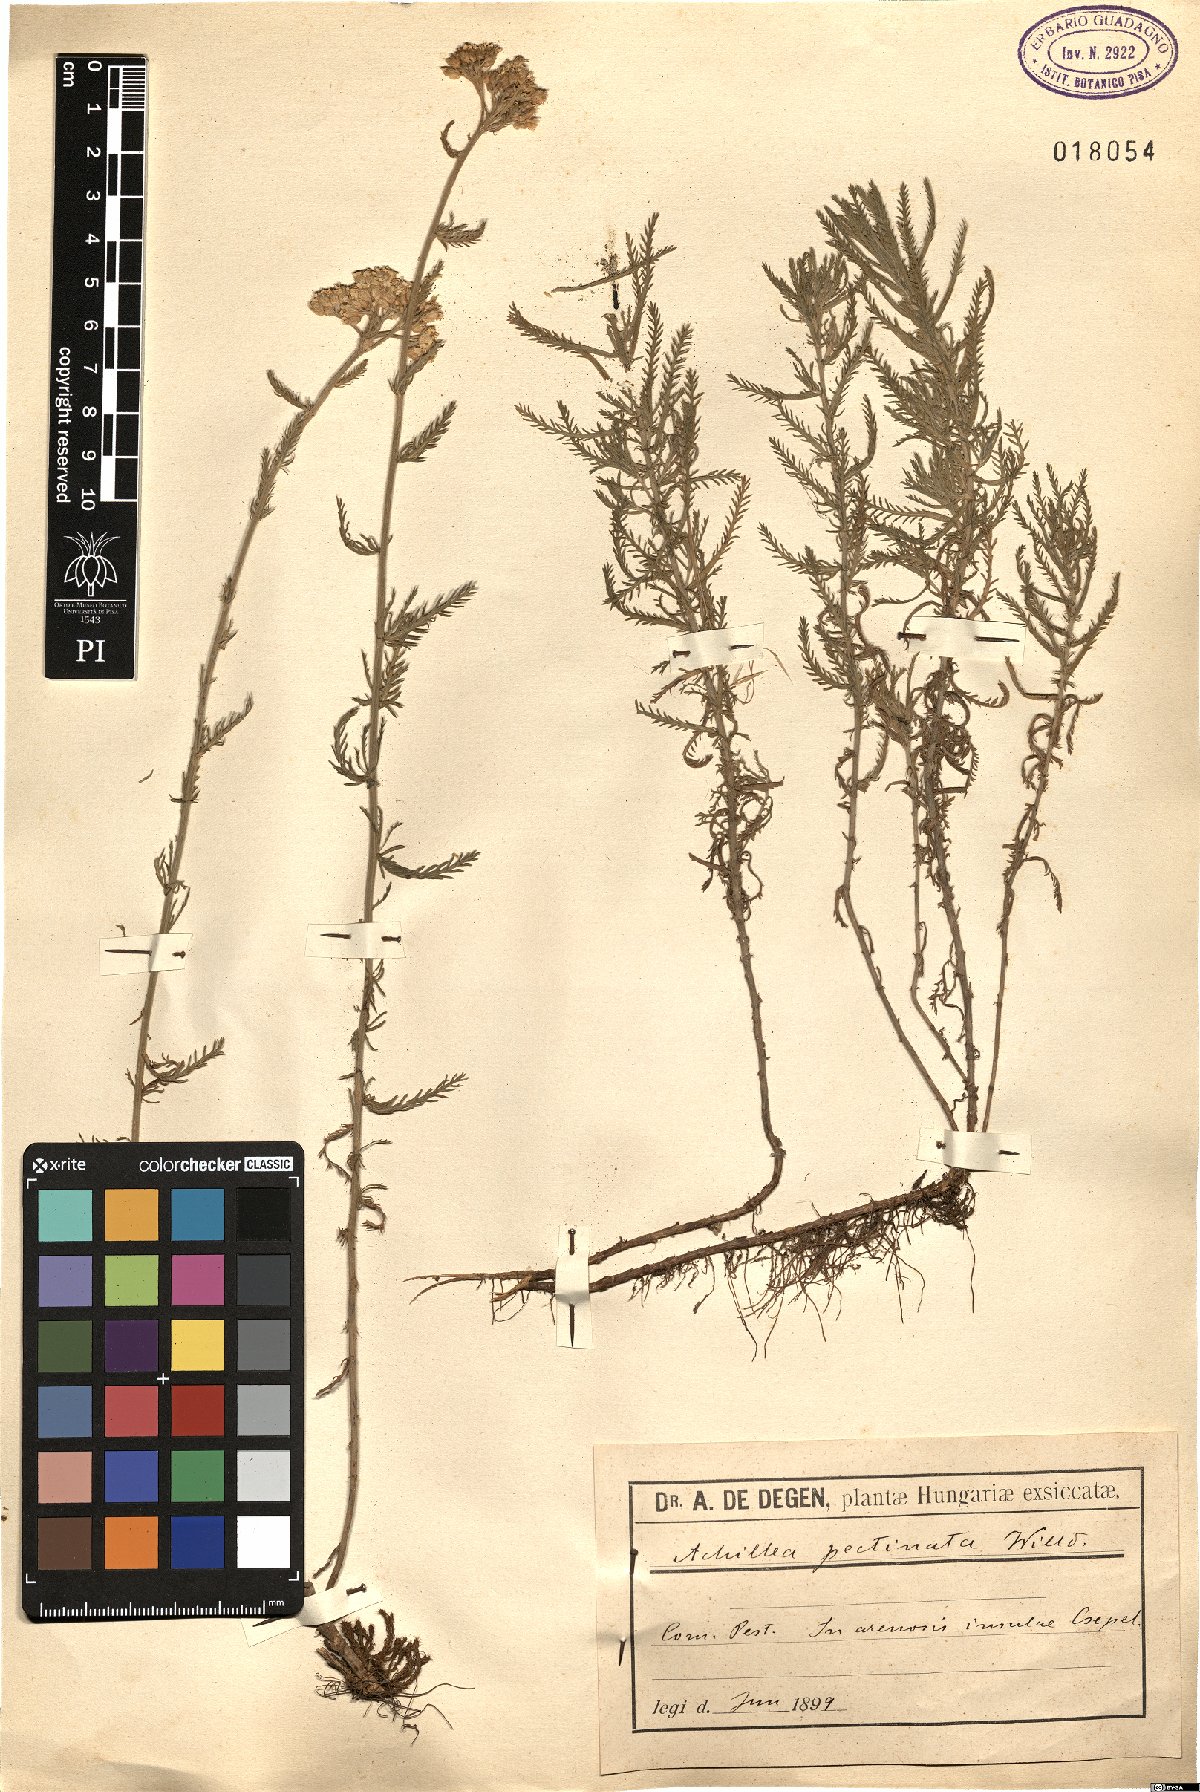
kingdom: Plantae
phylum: Tracheophyta
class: Magnoliopsida
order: Asterales
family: Asteraceae
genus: Achillea
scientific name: Achillea ochroleuca
